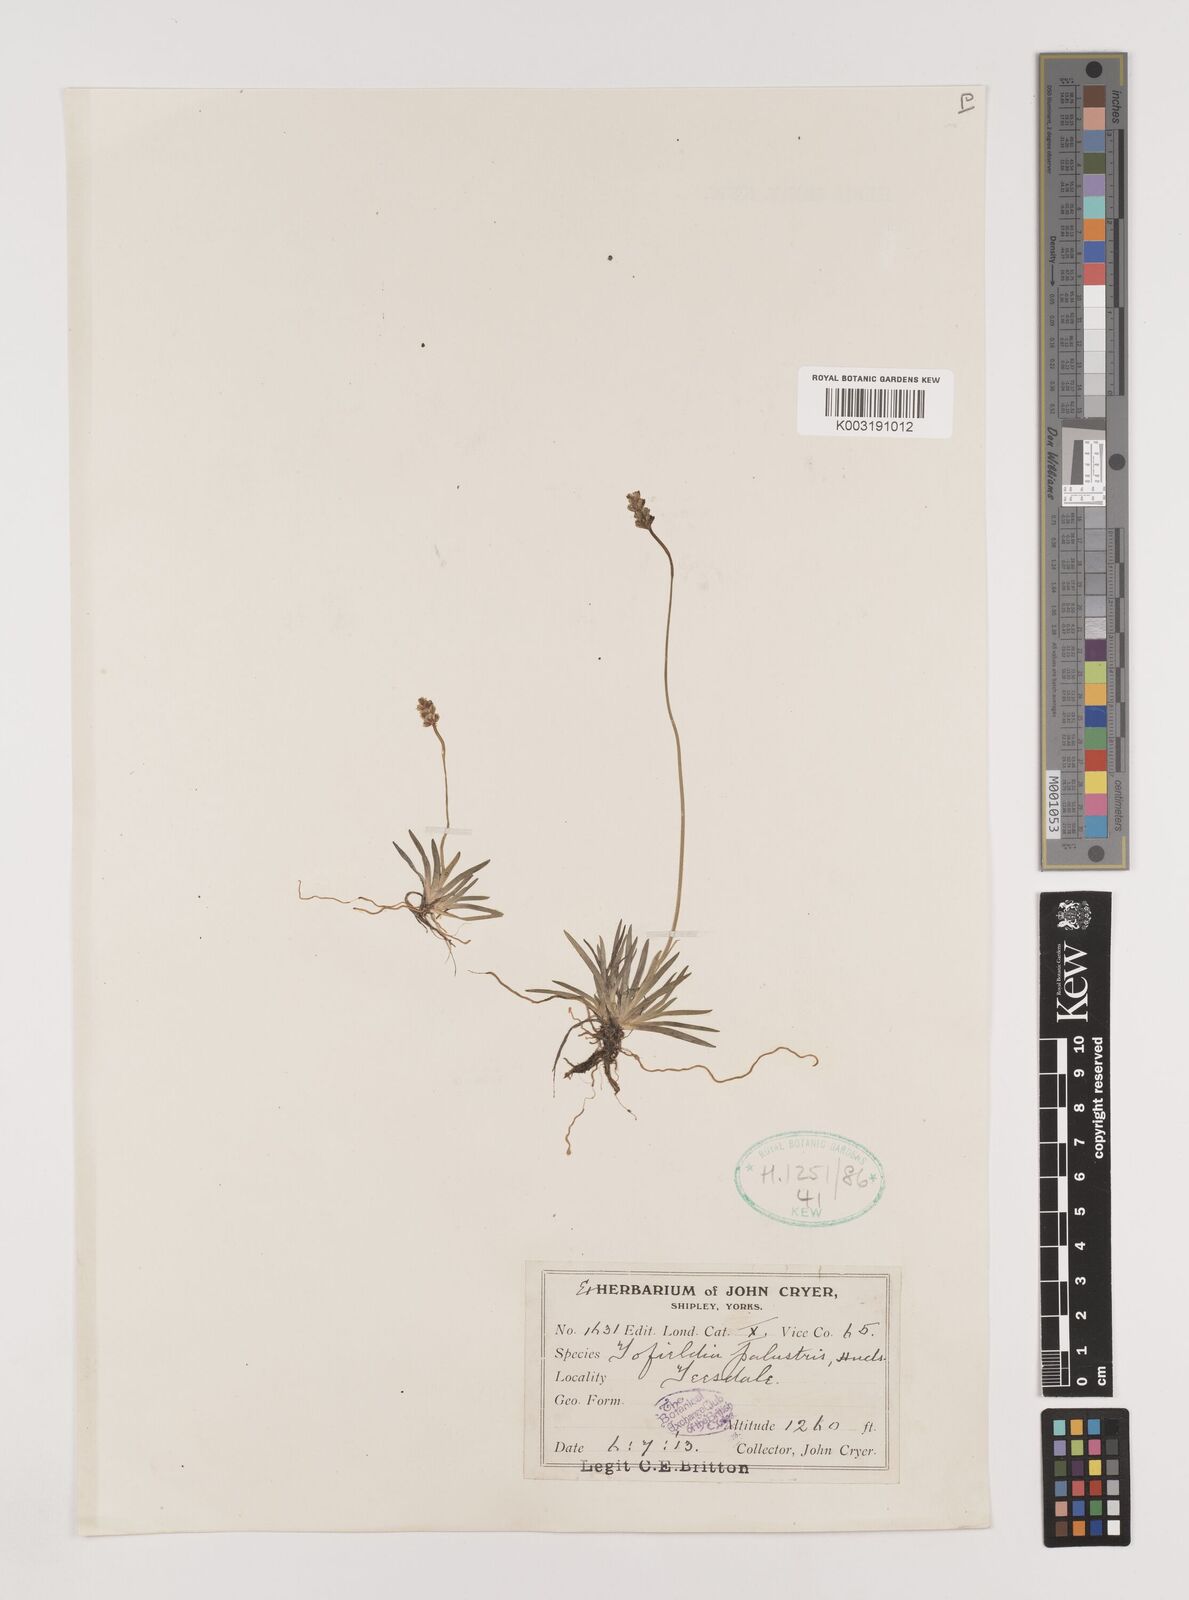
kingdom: Plantae
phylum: Tracheophyta
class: Liliopsida
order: Alismatales
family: Tofieldiaceae
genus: Tofieldia
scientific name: Tofieldia pusilla
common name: Scottish false asphodel
